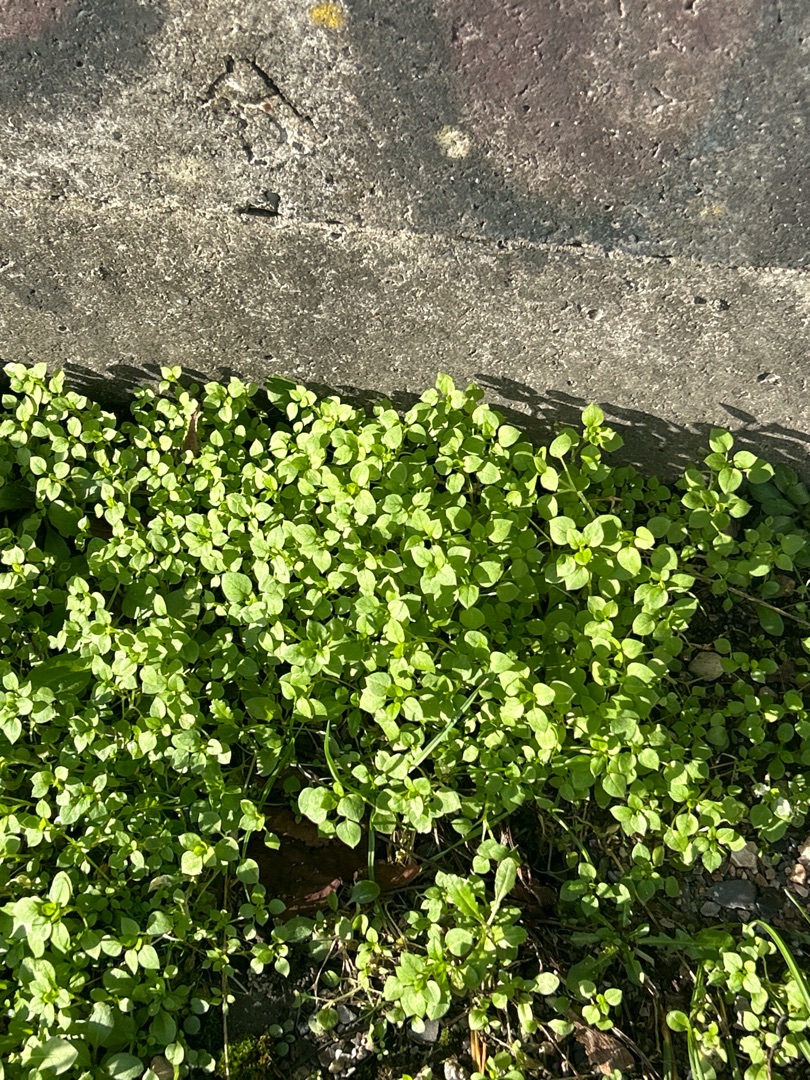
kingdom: Plantae
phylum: Tracheophyta
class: Magnoliopsida
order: Caryophyllales
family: Caryophyllaceae
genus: Stellaria
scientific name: Stellaria media
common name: Almindelig fuglegræs
